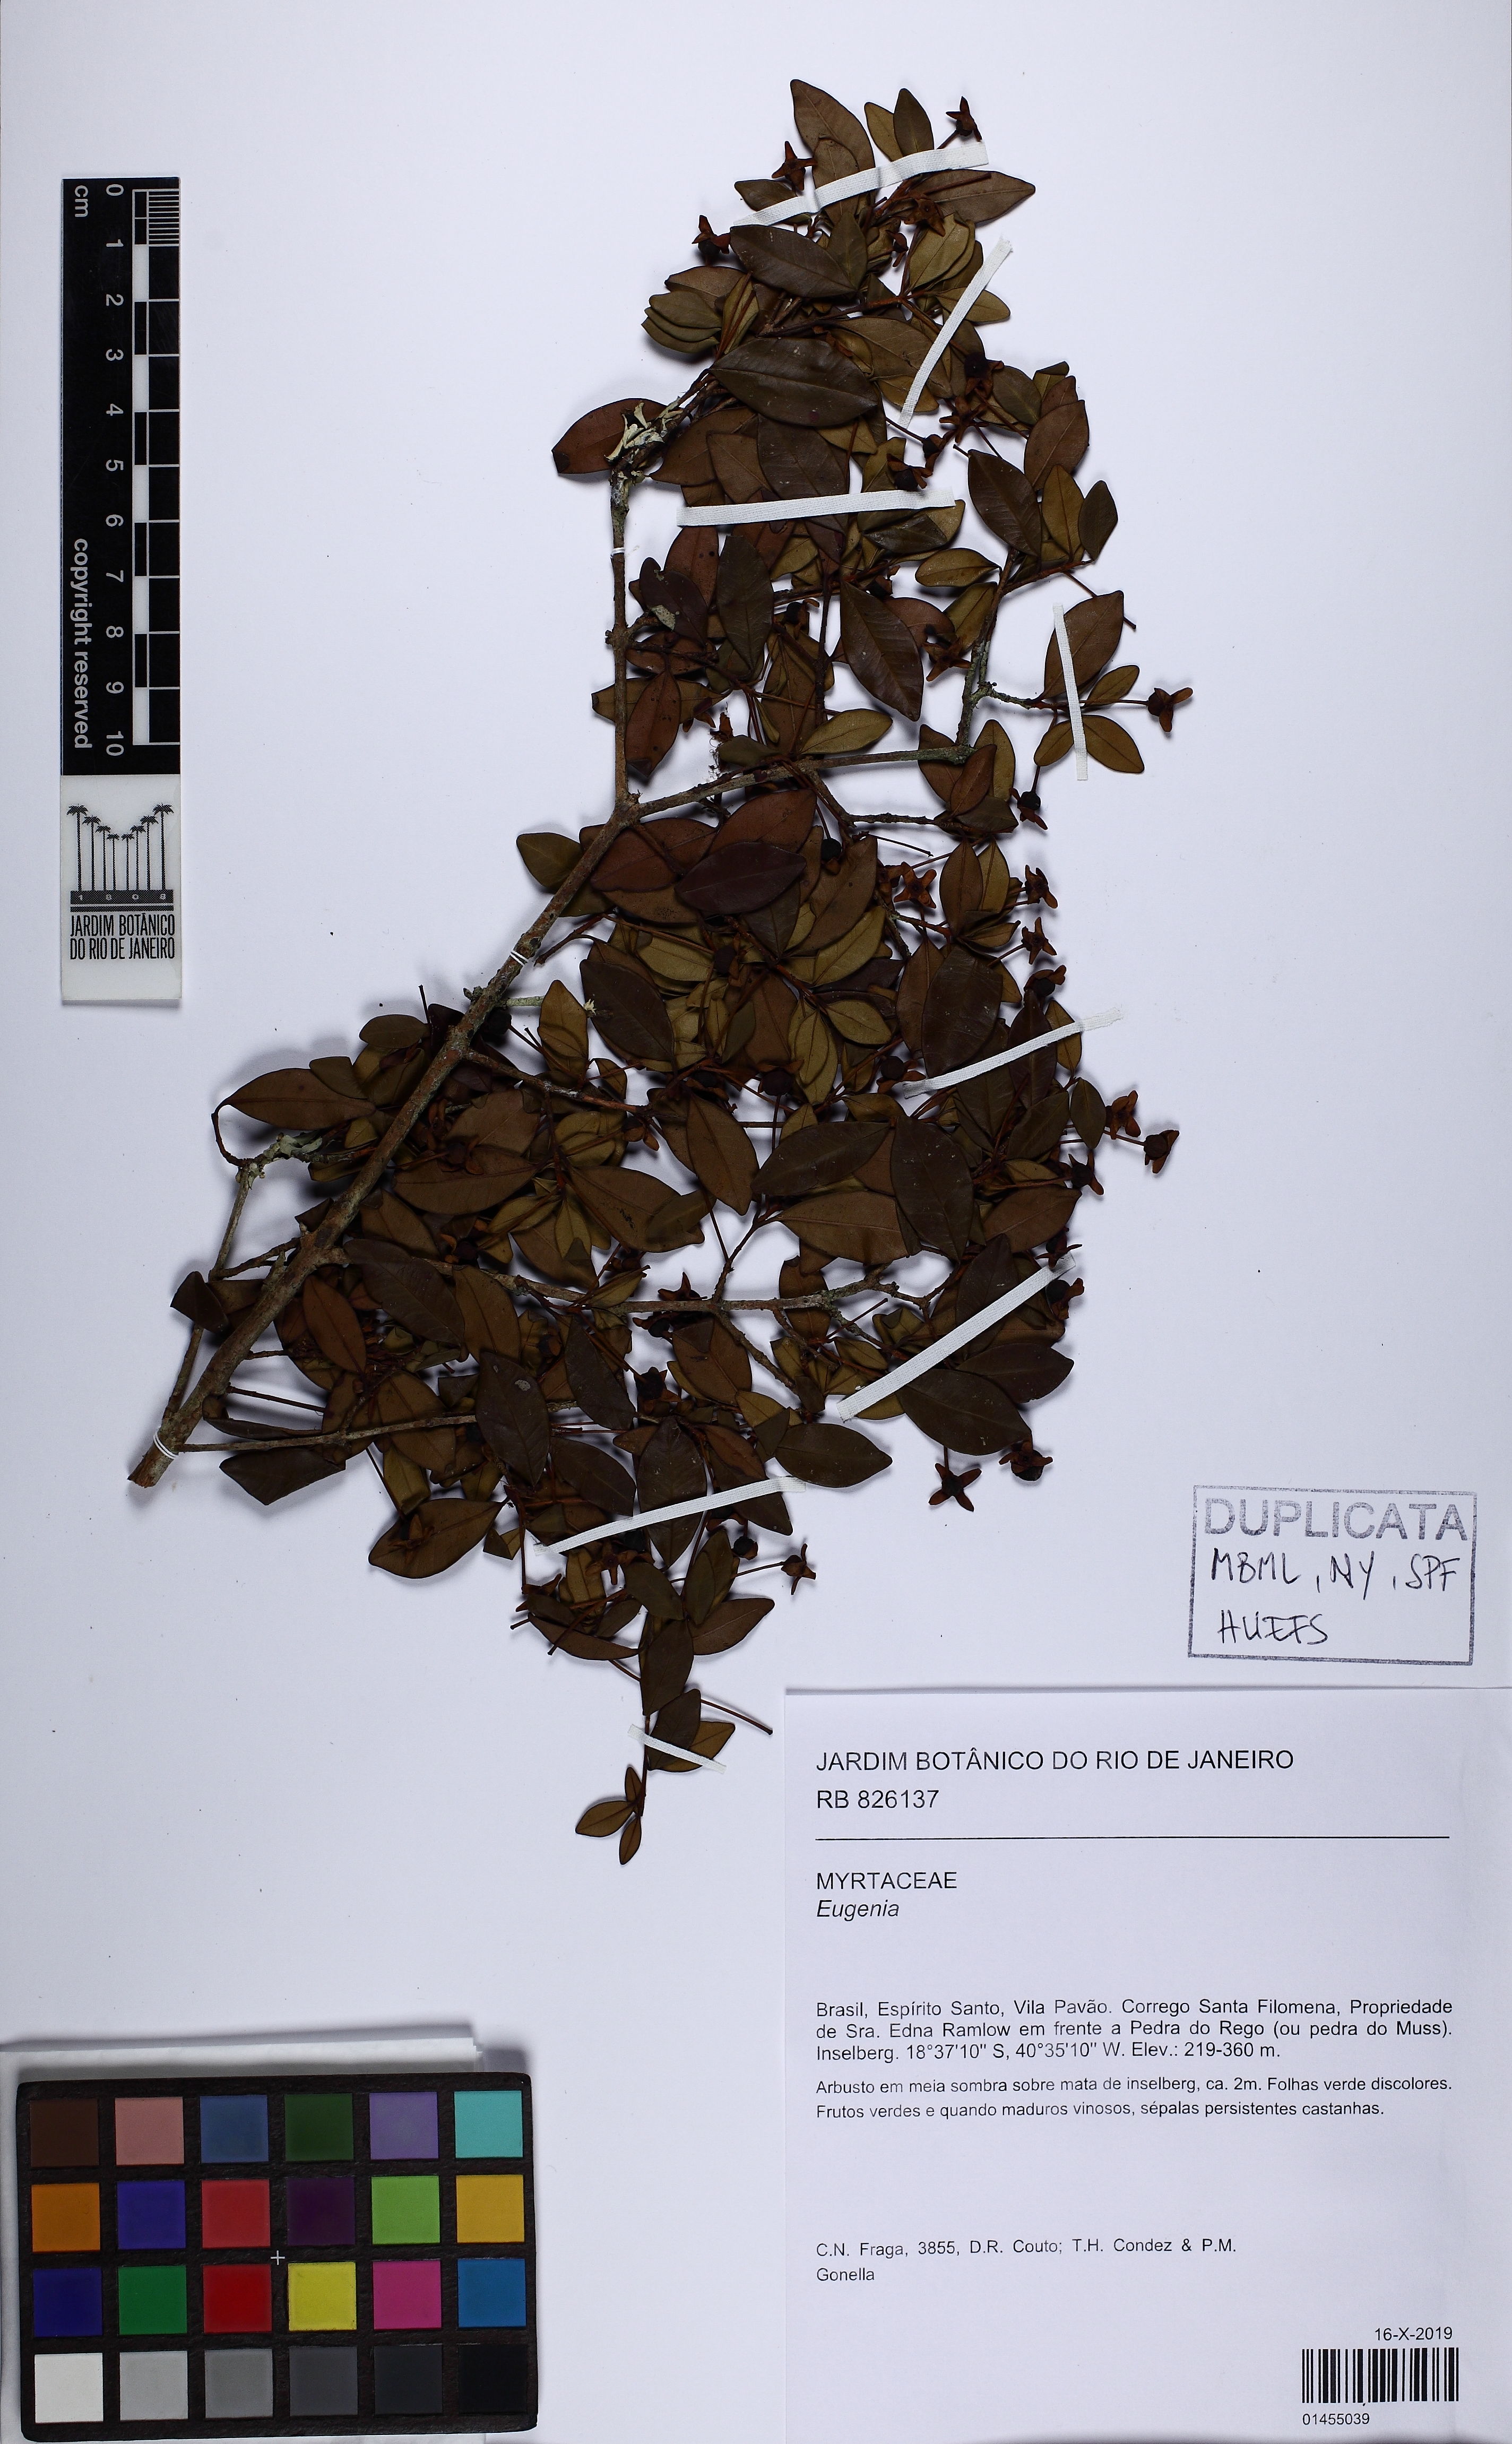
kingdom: Plantae
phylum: Tracheophyta
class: Magnoliopsida
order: Myrtales
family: Myrtaceae
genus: Eugenia
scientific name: Eugenia
